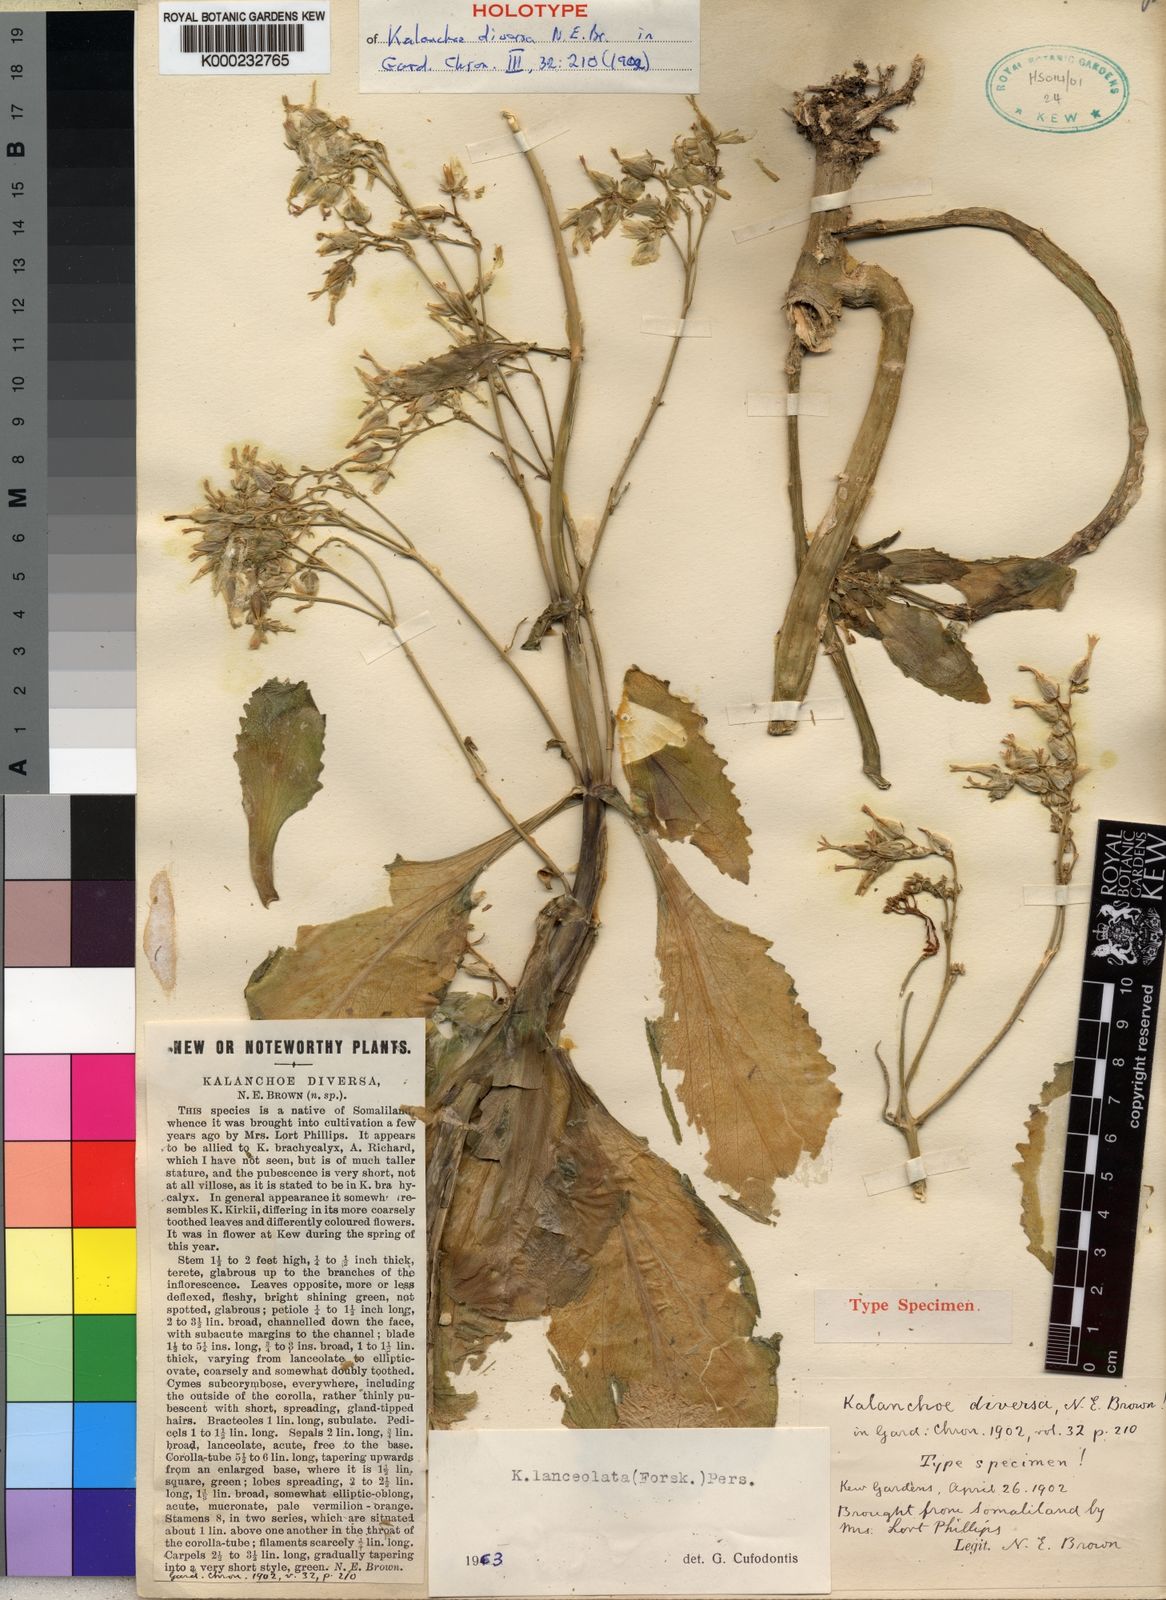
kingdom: Plantae
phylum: Tracheophyta
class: Magnoliopsida
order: Saxifragales
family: Crassulaceae
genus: Kalanchoe
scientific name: Kalanchoe lanceolata
